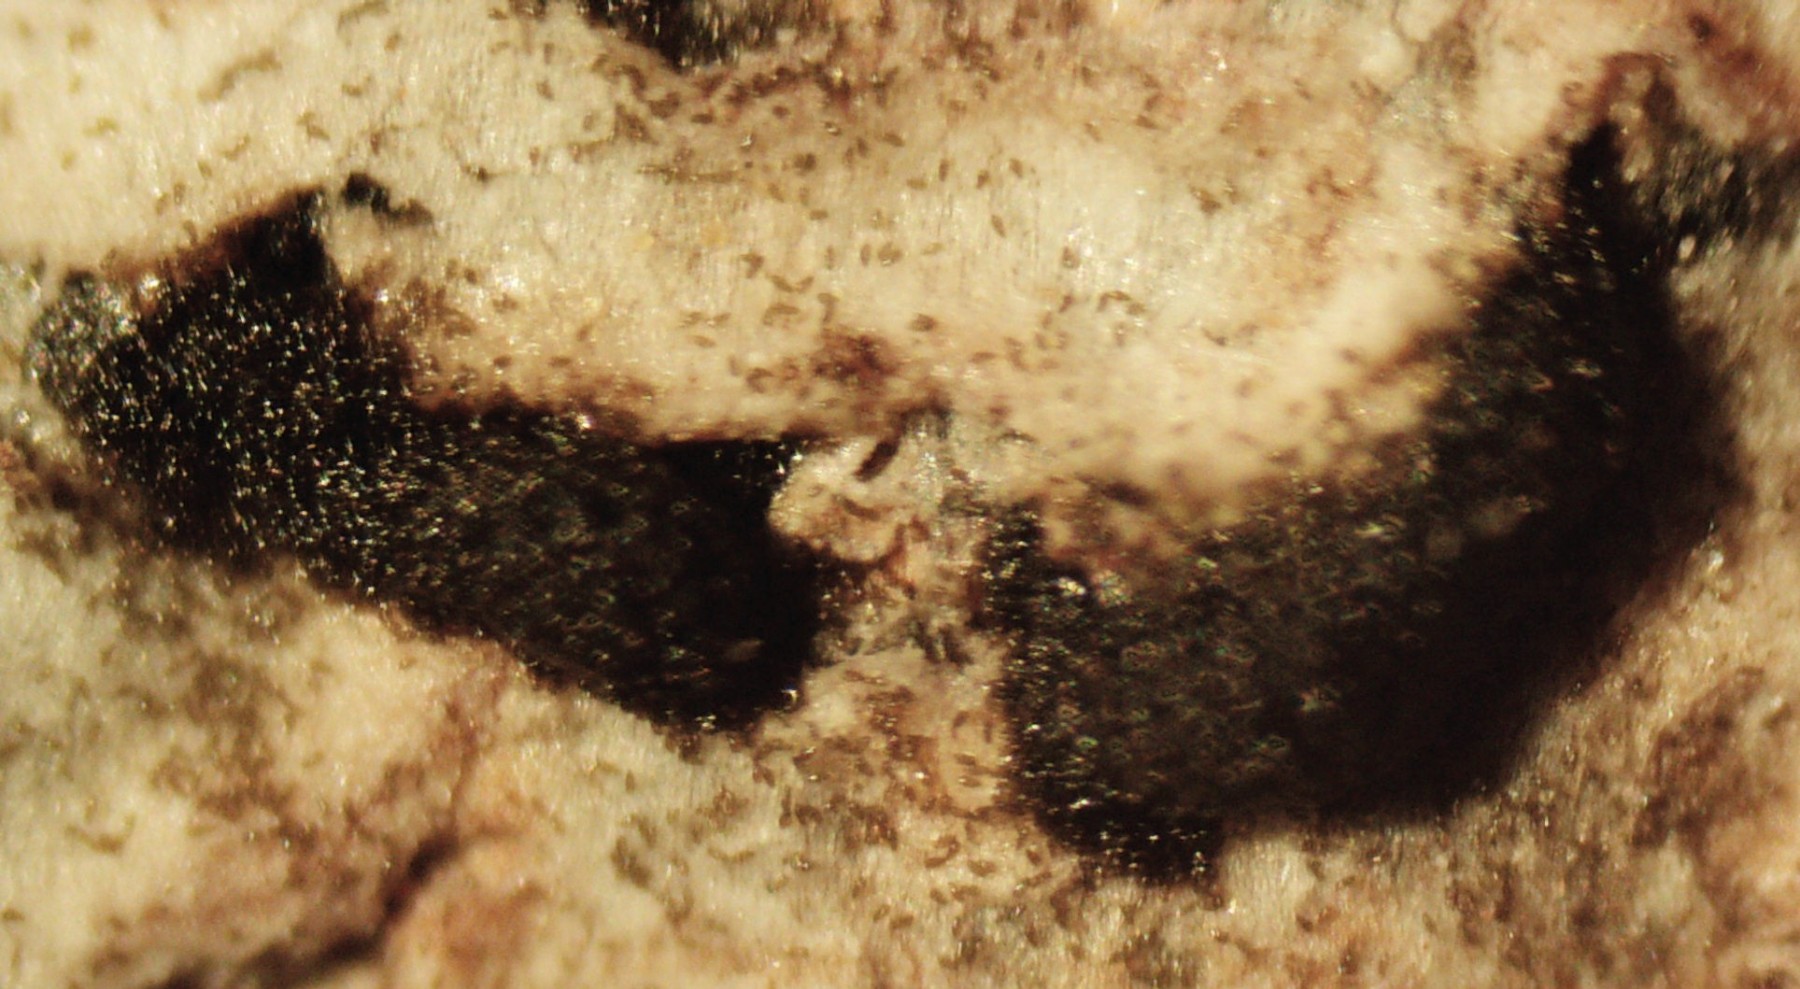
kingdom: Fungi
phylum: Ascomycota
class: Sordariomycetes
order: Diaporthales
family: Melanconidaceae
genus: Prosthecium
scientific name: Prosthecium pyriforme
